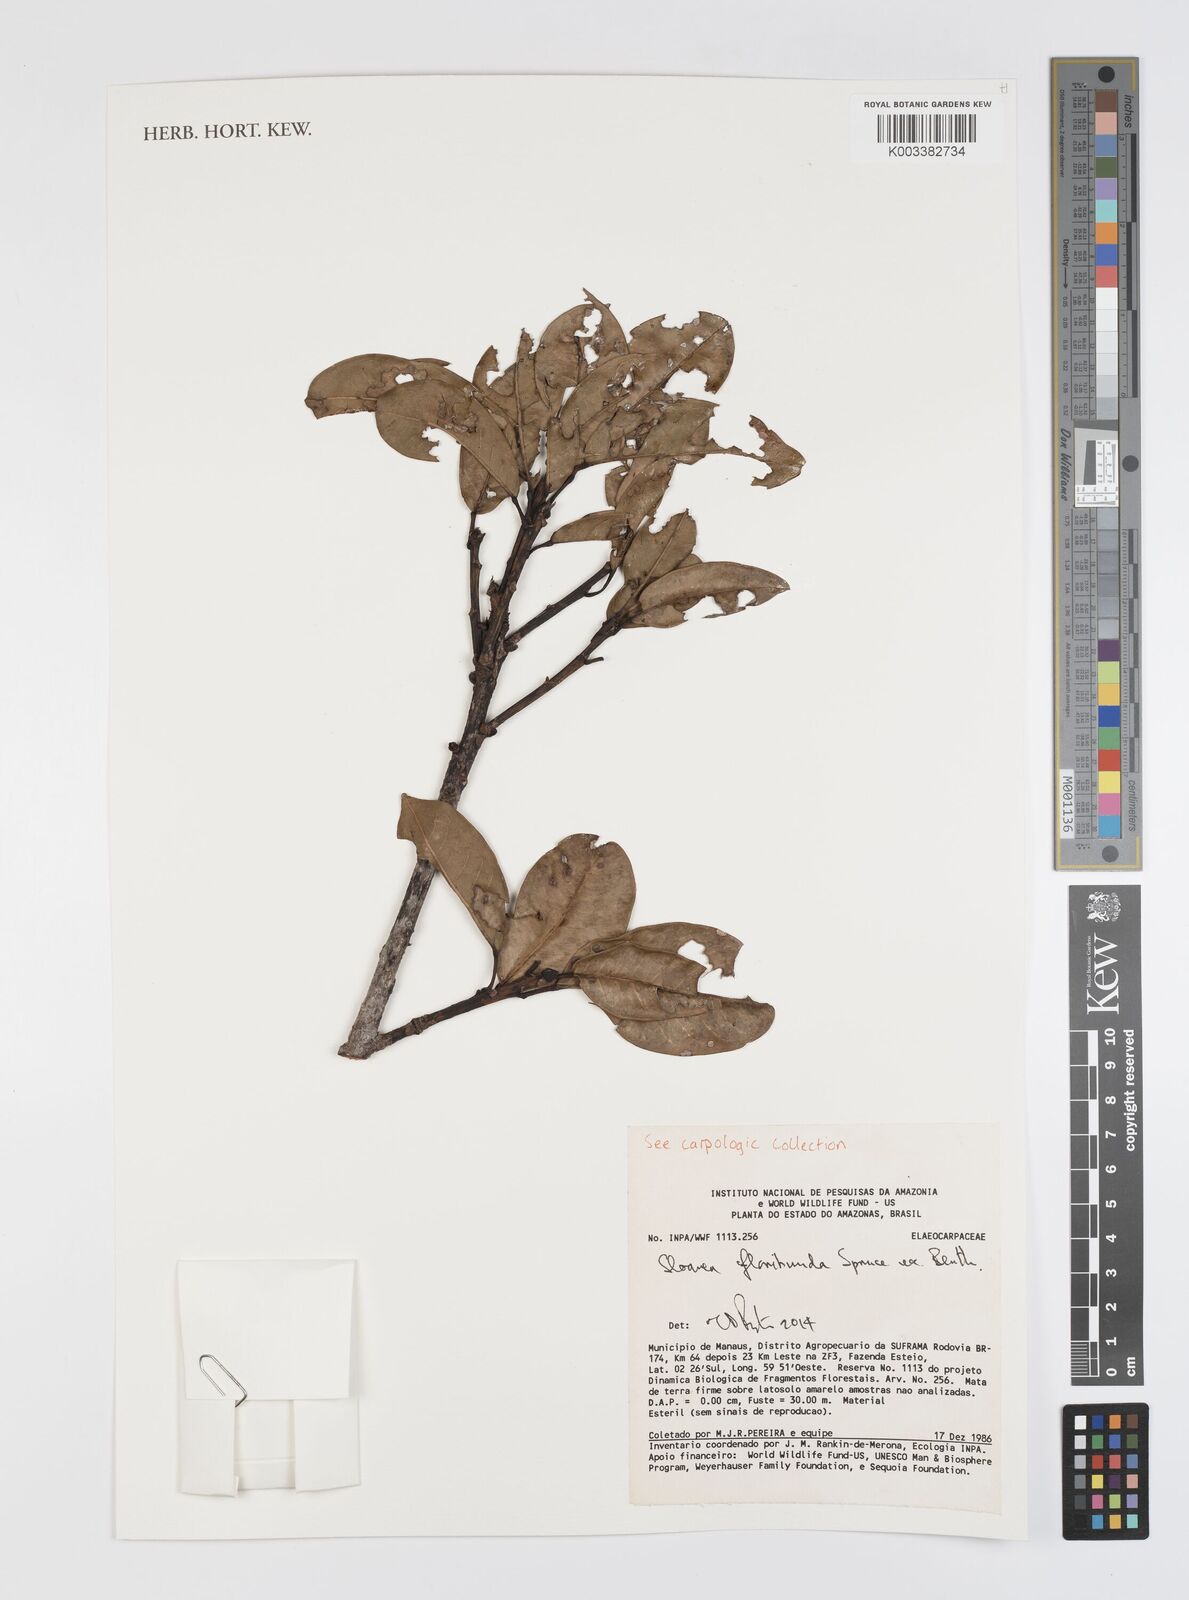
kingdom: Plantae
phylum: Tracheophyta
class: Magnoliopsida
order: Oxalidales
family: Elaeocarpaceae
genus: Sloanea
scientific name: Sloanea floribunda
